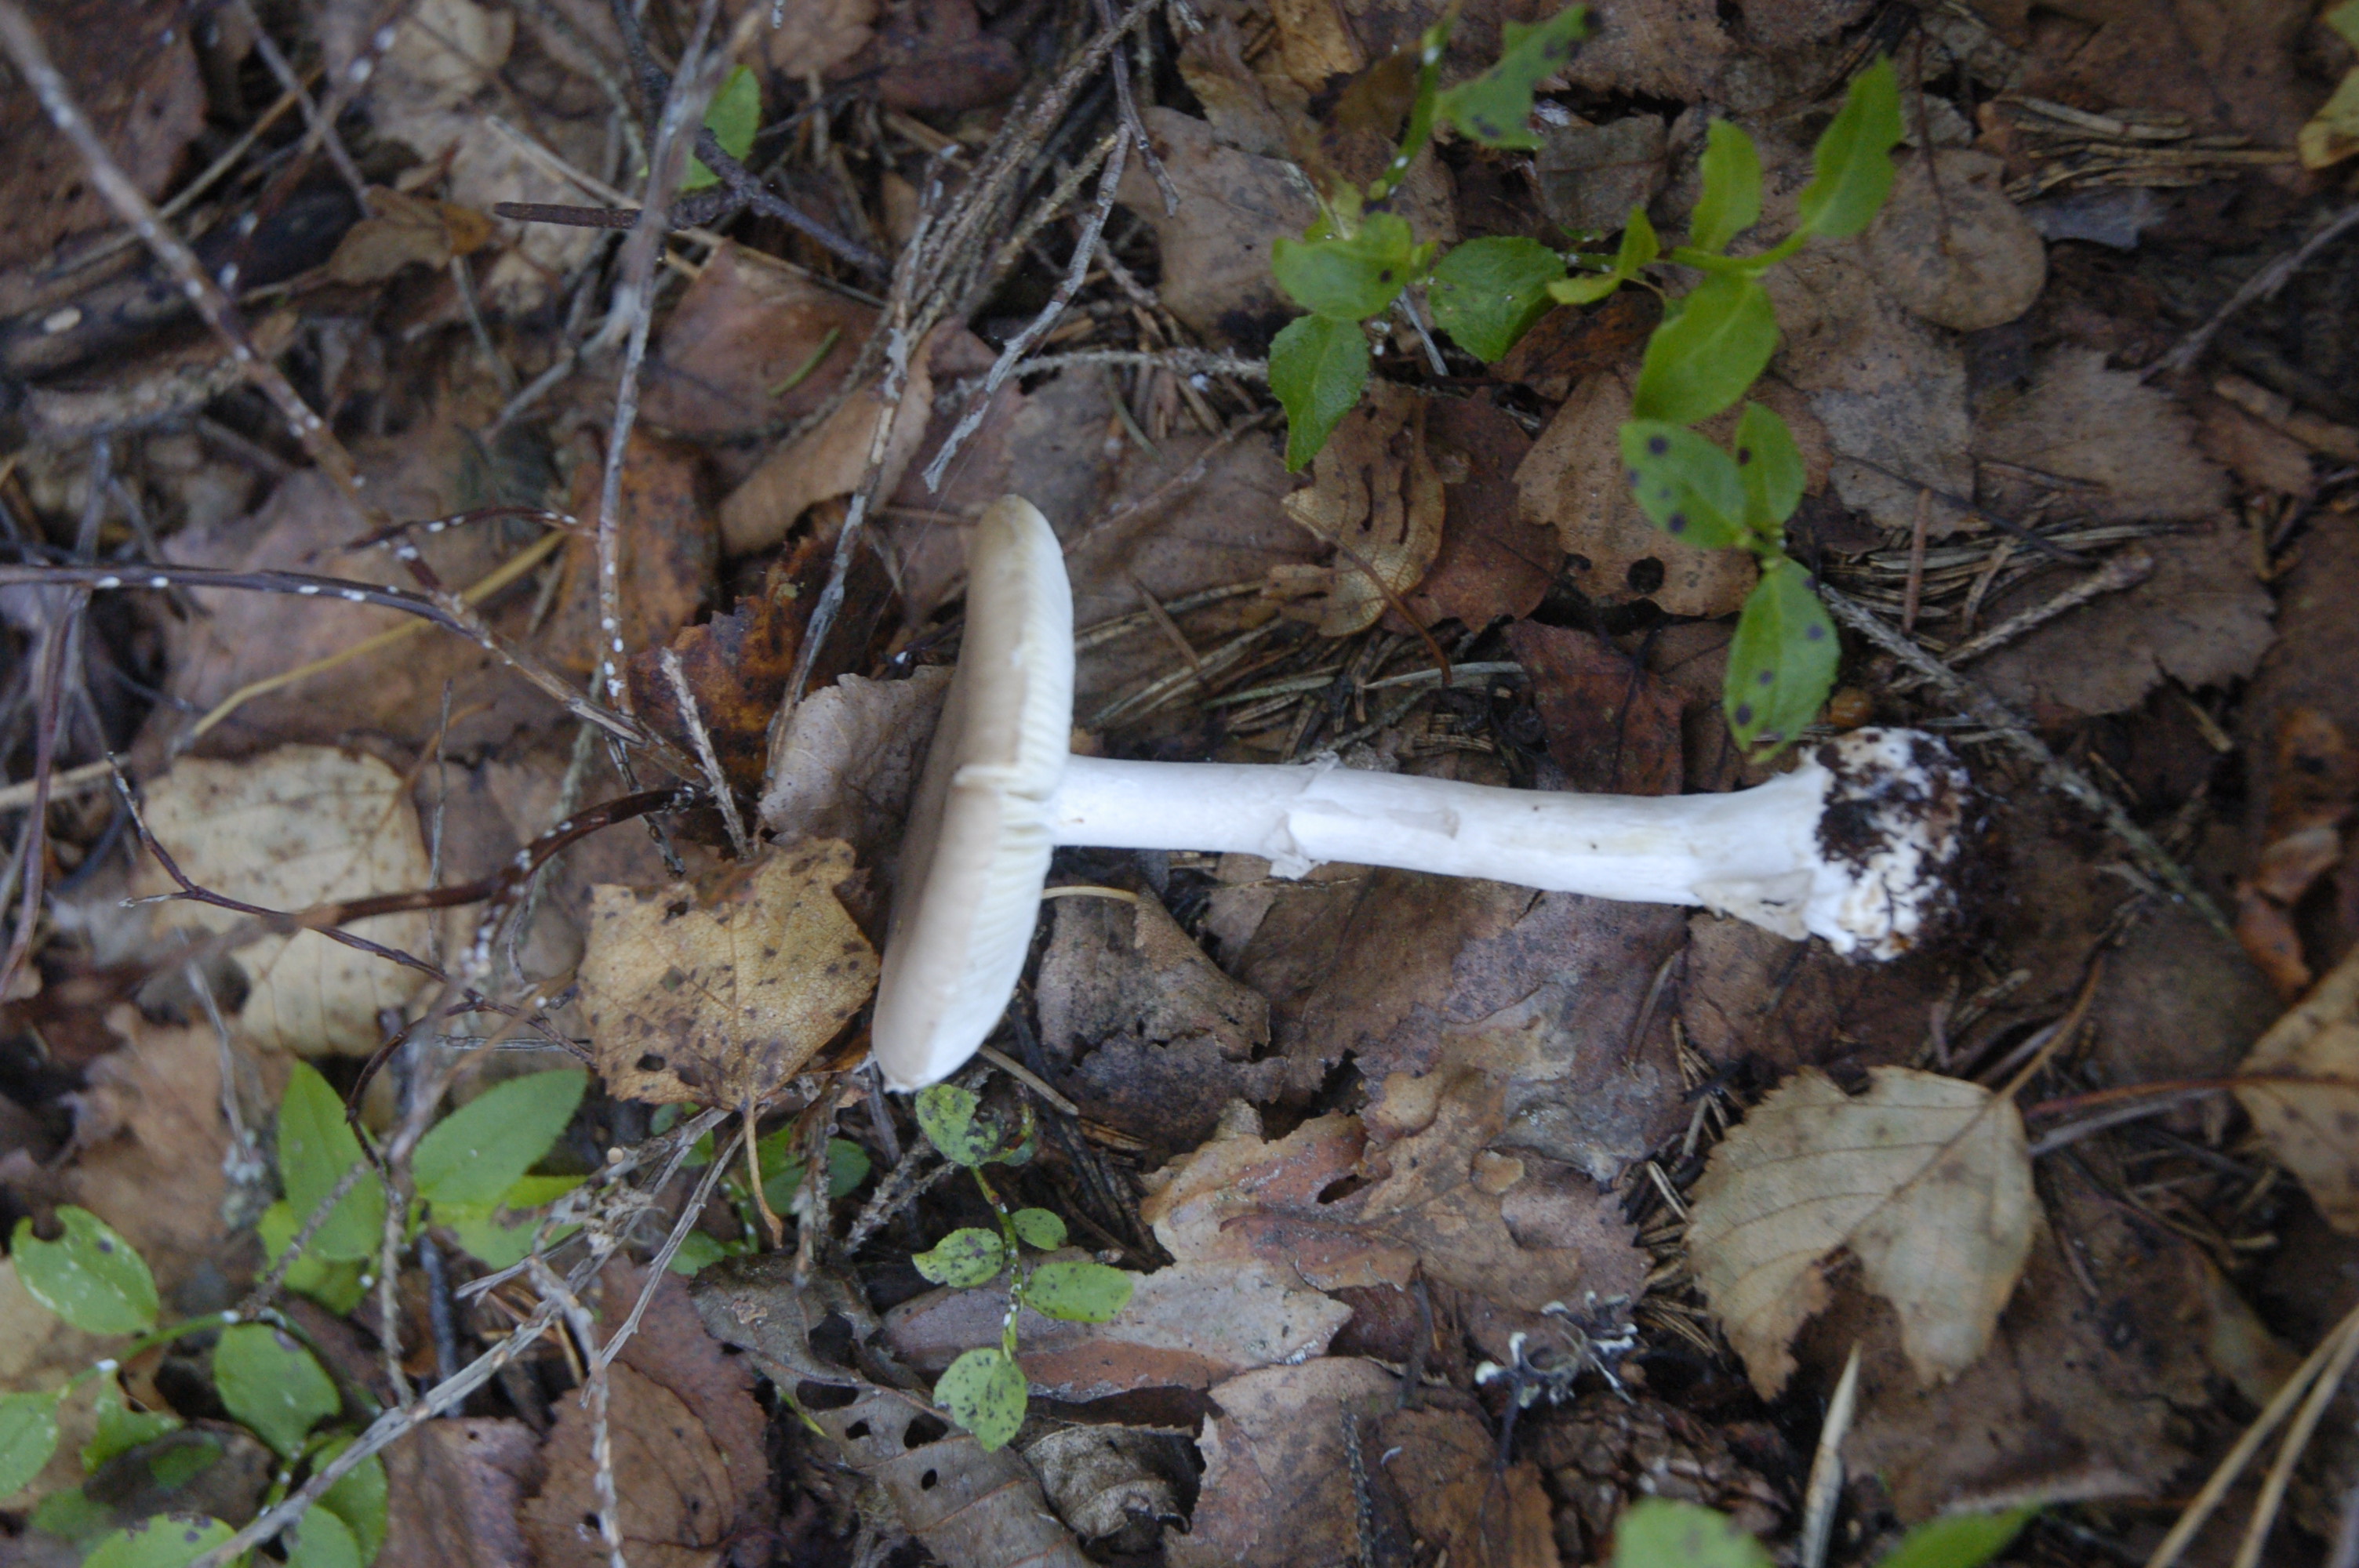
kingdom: Fungi
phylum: Basidiomycota
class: Agaricomycetes
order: Agaricales
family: Amanitaceae
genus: Amanita
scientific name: Amanita porphyria
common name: Grey veiled amanita
